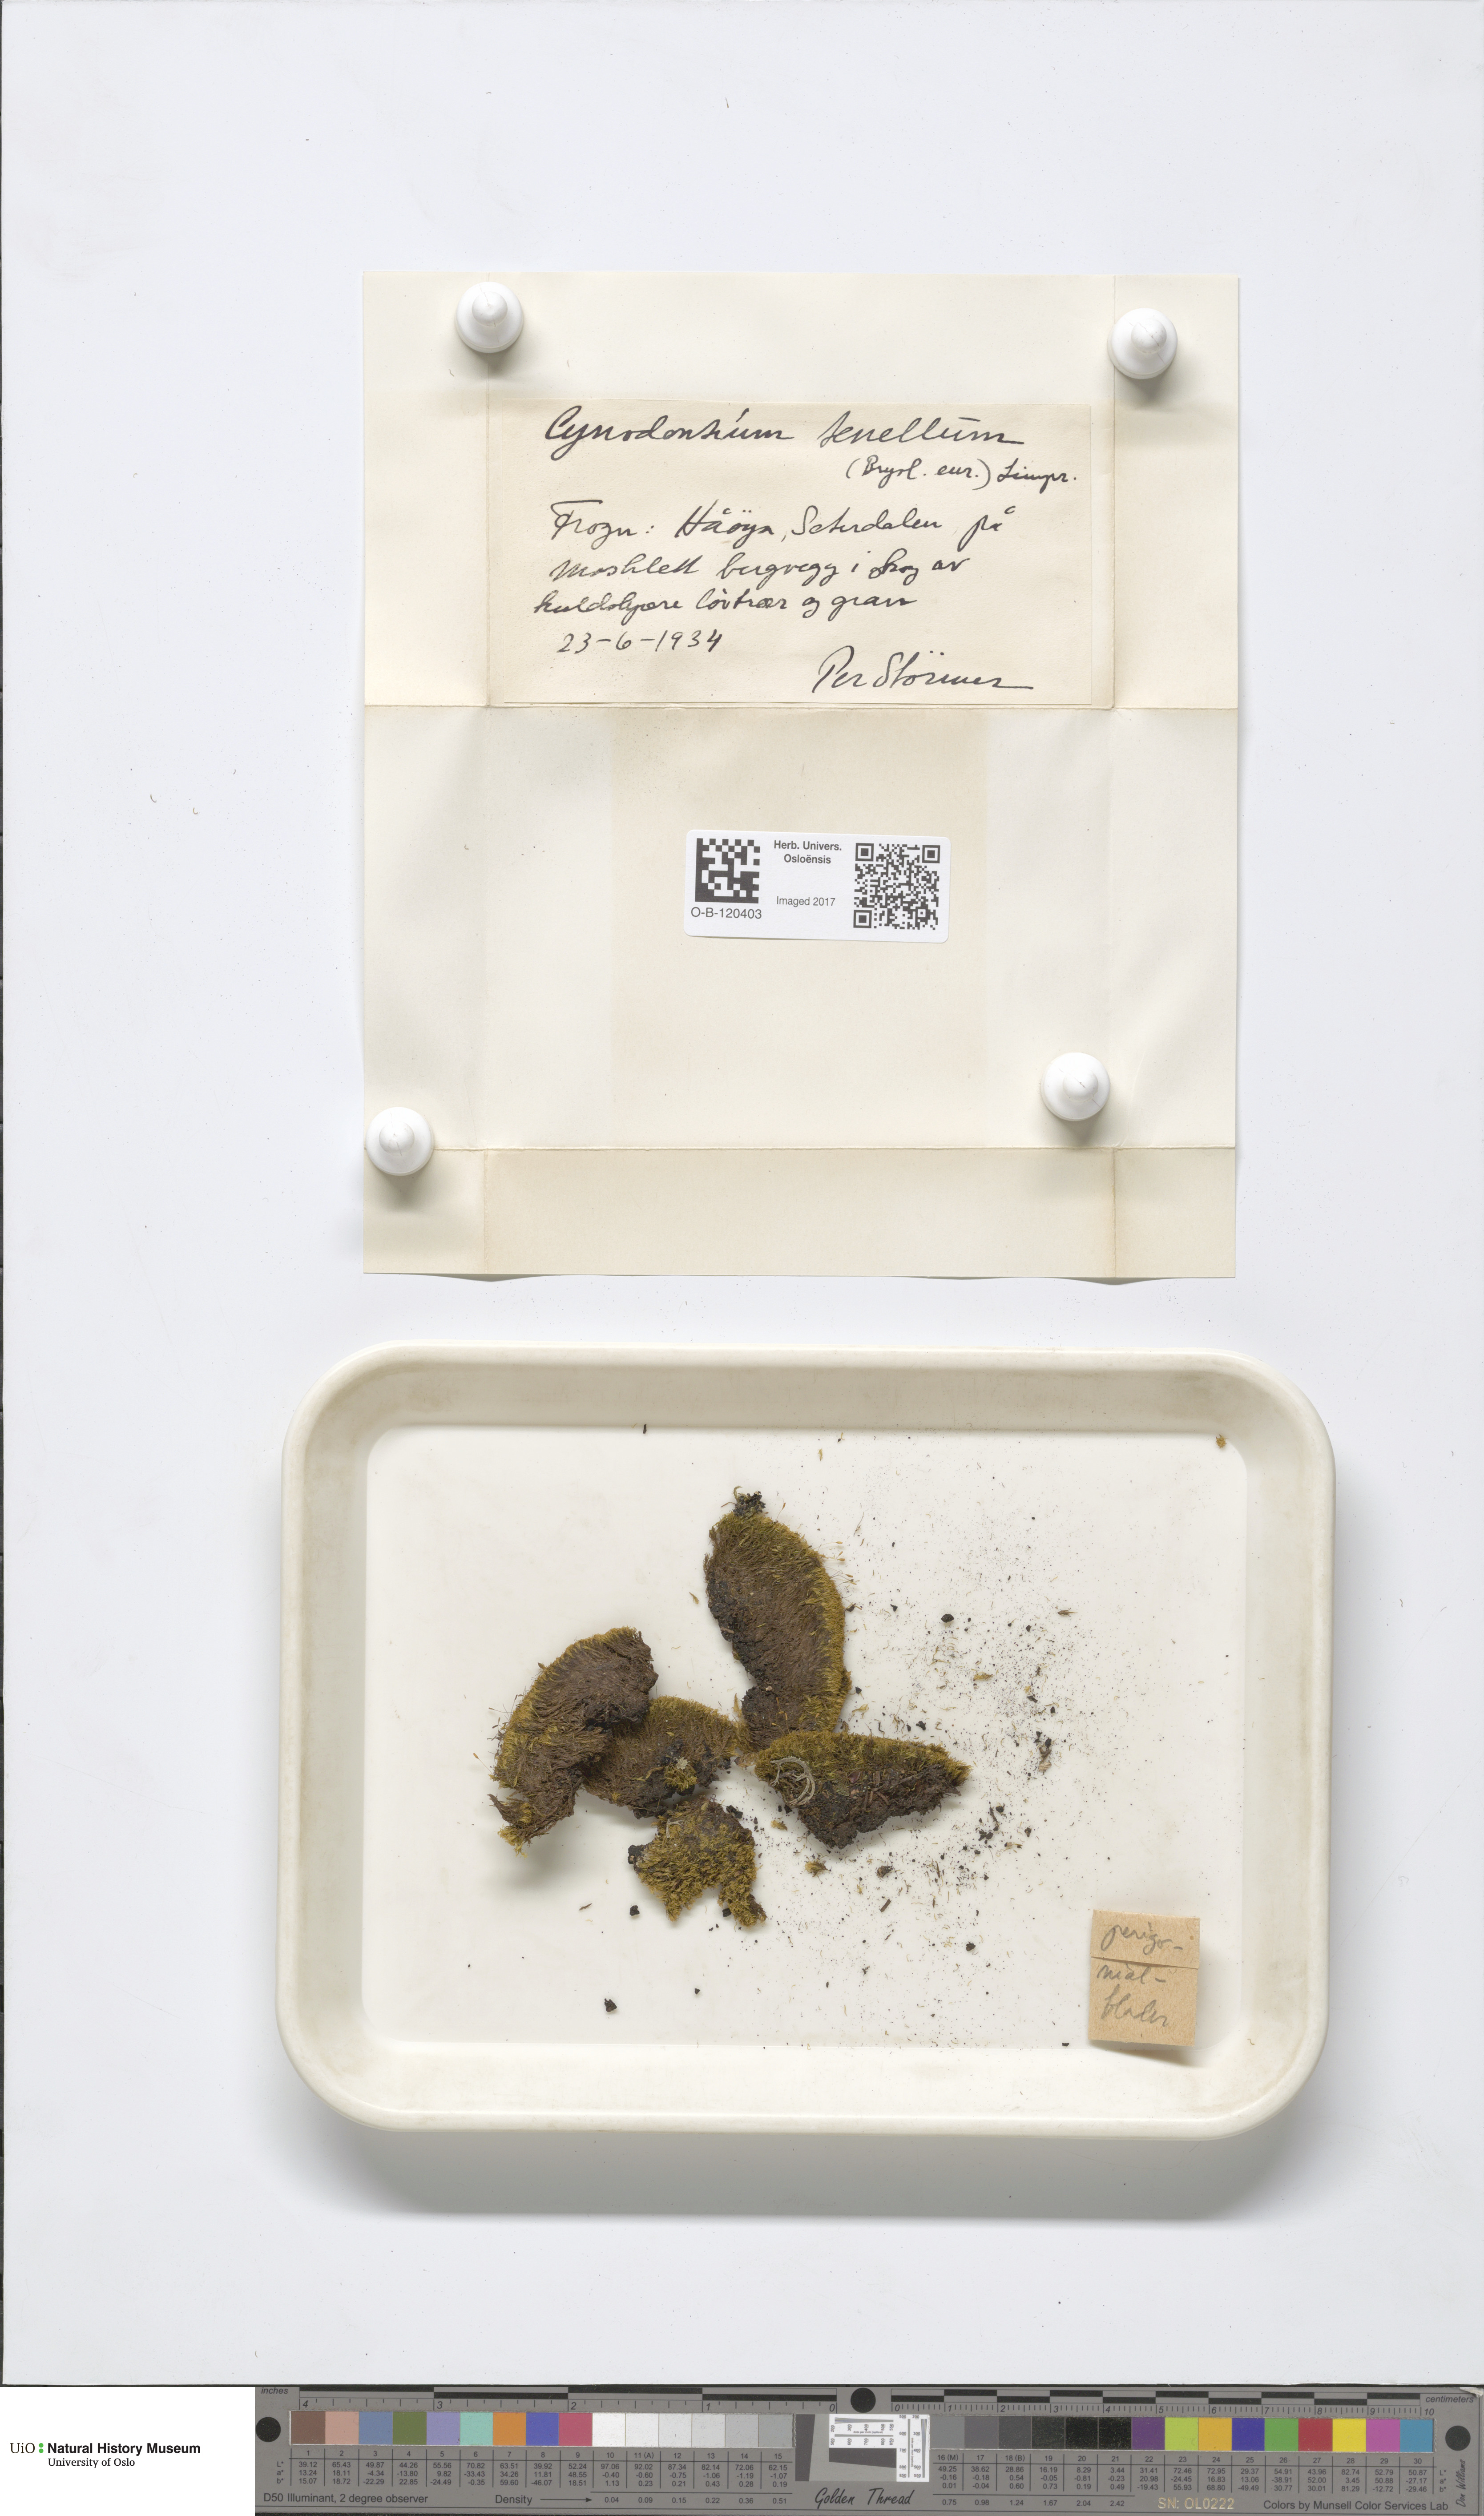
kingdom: Plantae
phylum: Bryophyta
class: Bryopsida
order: Dicranales
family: Rhabdoweisiaceae
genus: Cynodontium
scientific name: Cynodontium tenellum
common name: Delicate dogtooth moss
